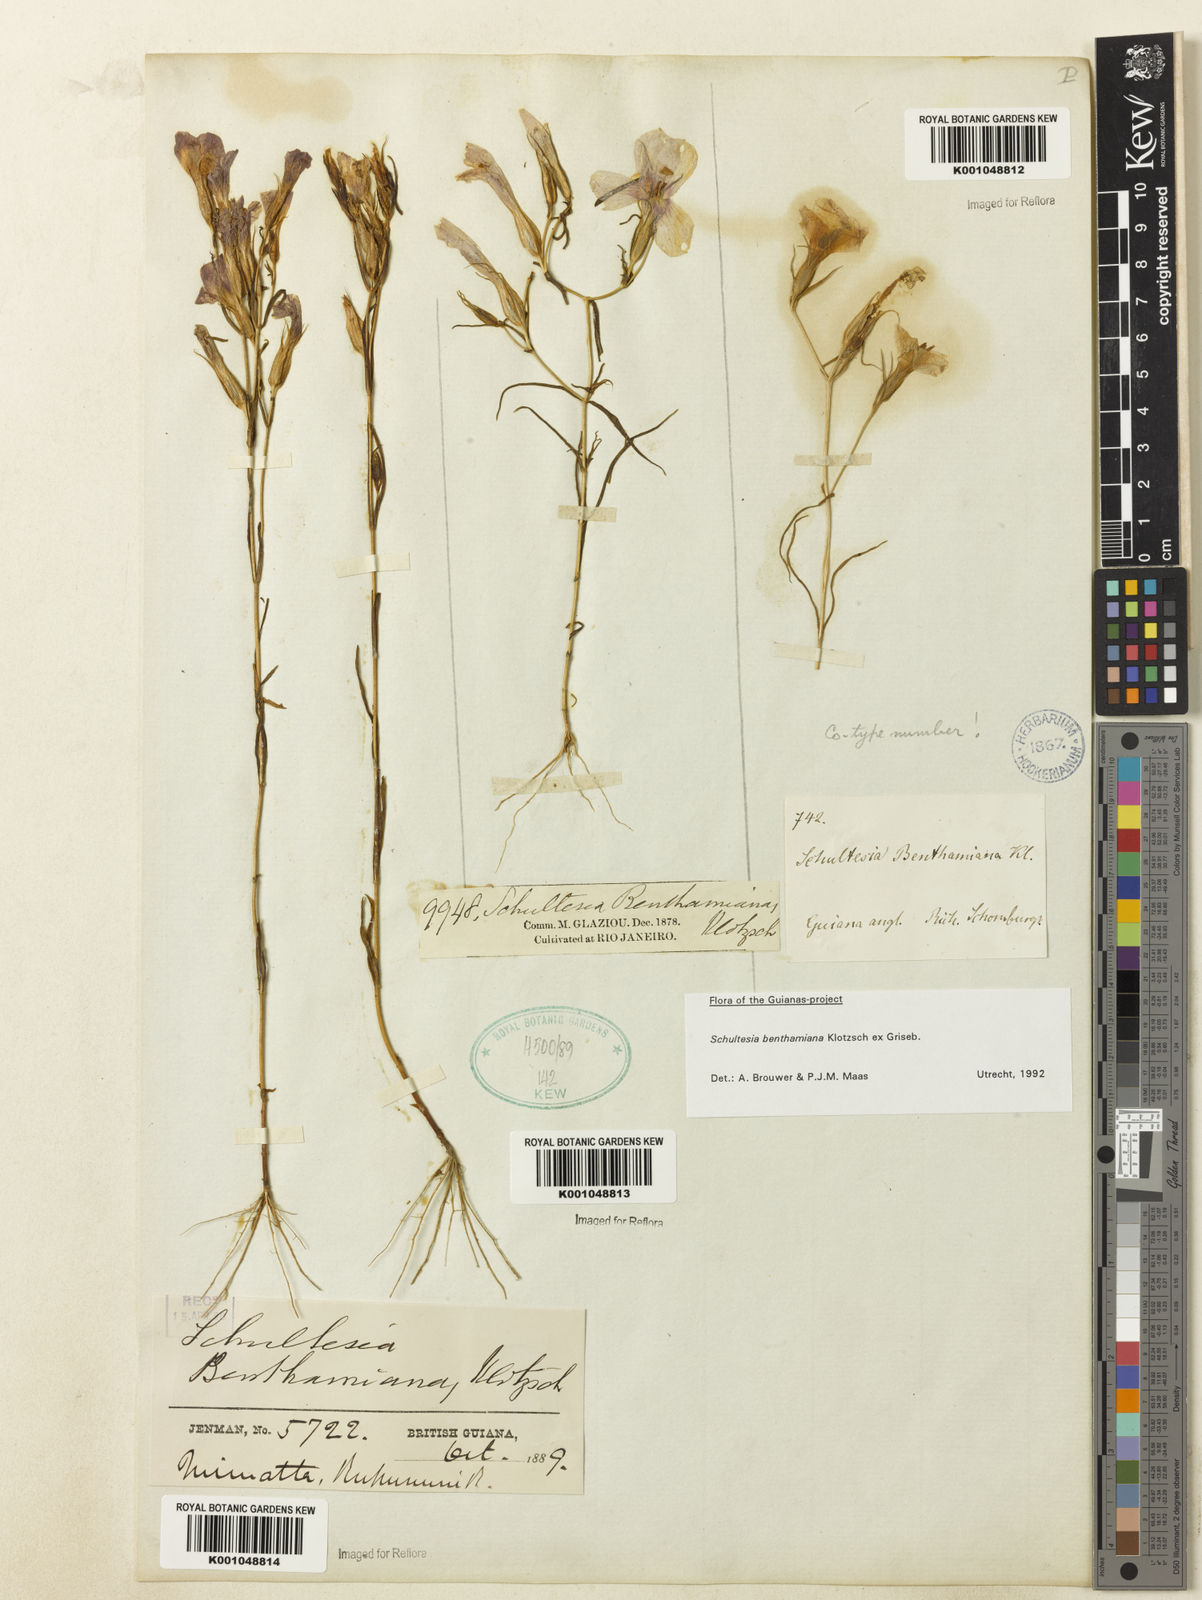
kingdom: Plantae
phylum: Tracheophyta
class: Magnoliopsida
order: Gentianales
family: Gentianaceae
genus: Schultesia
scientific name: Schultesia benthamiana
